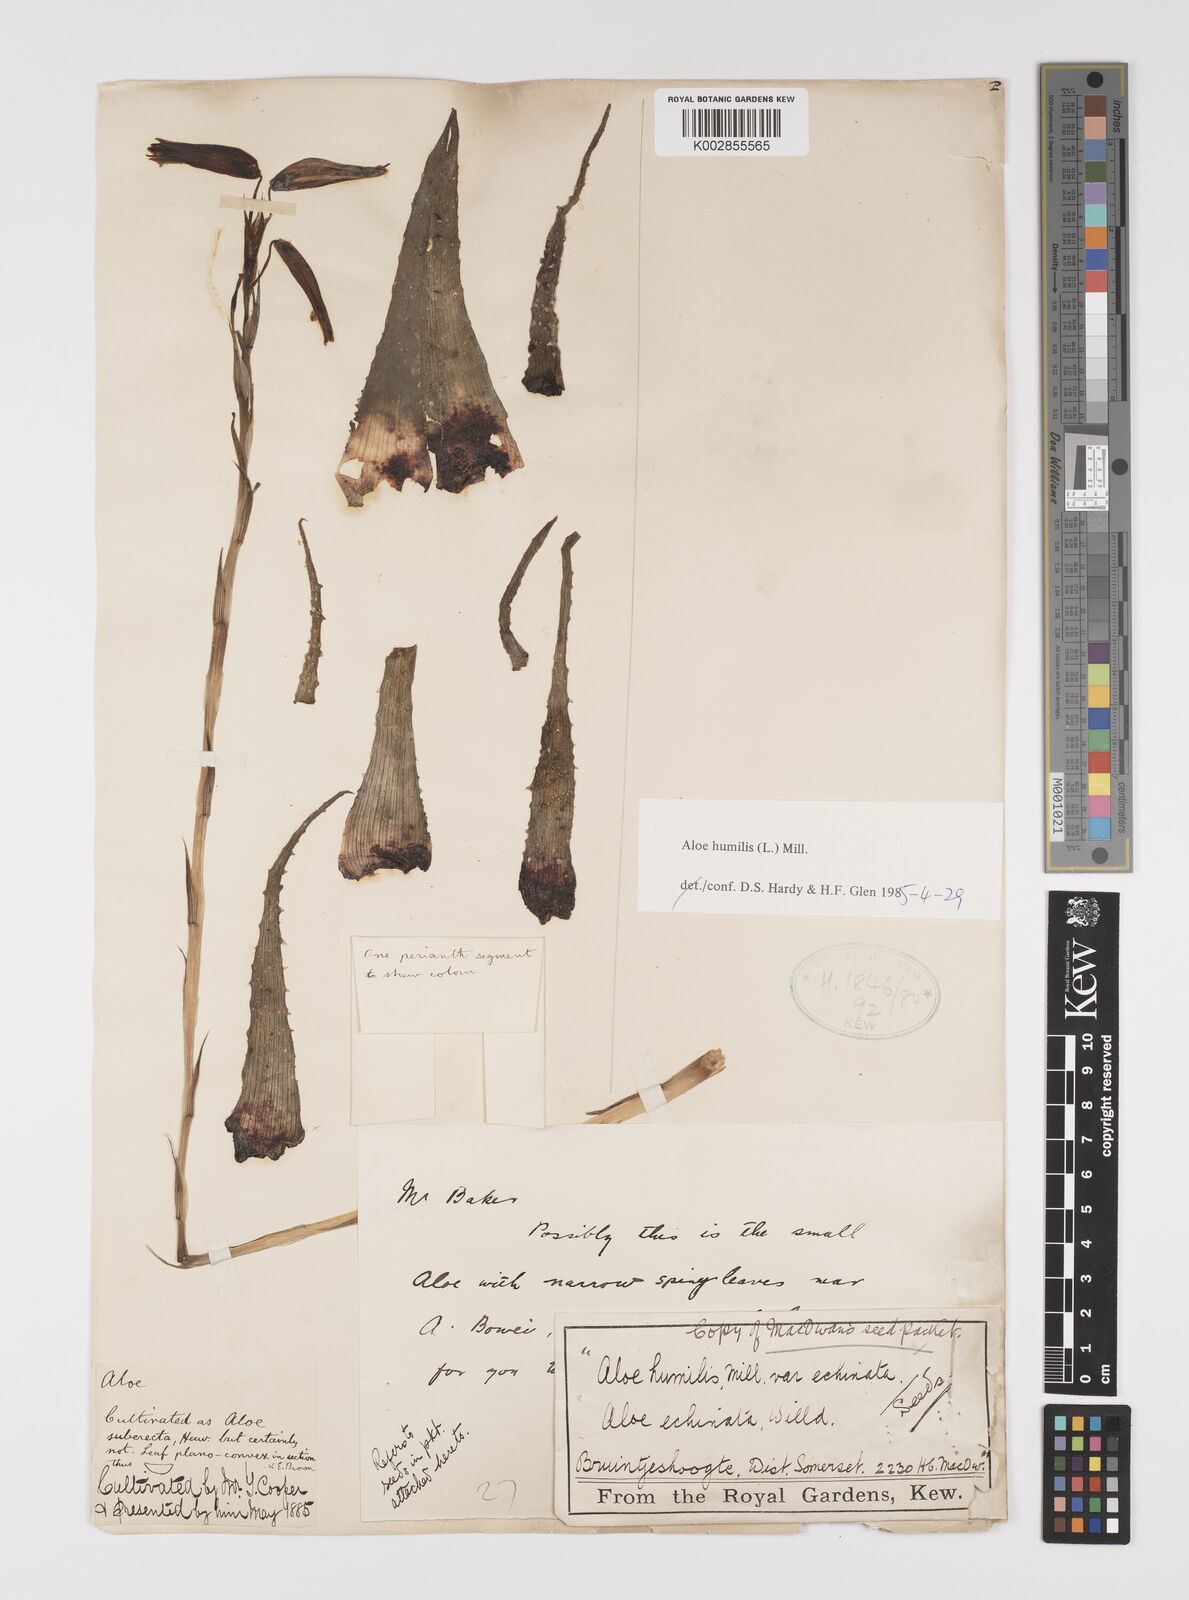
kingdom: Plantae
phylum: Tracheophyta
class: Liliopsida
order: Asparagales
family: Asphodelaceae
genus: Aloe
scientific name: Aloe humilis
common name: Dwarf hedgehog aloe
